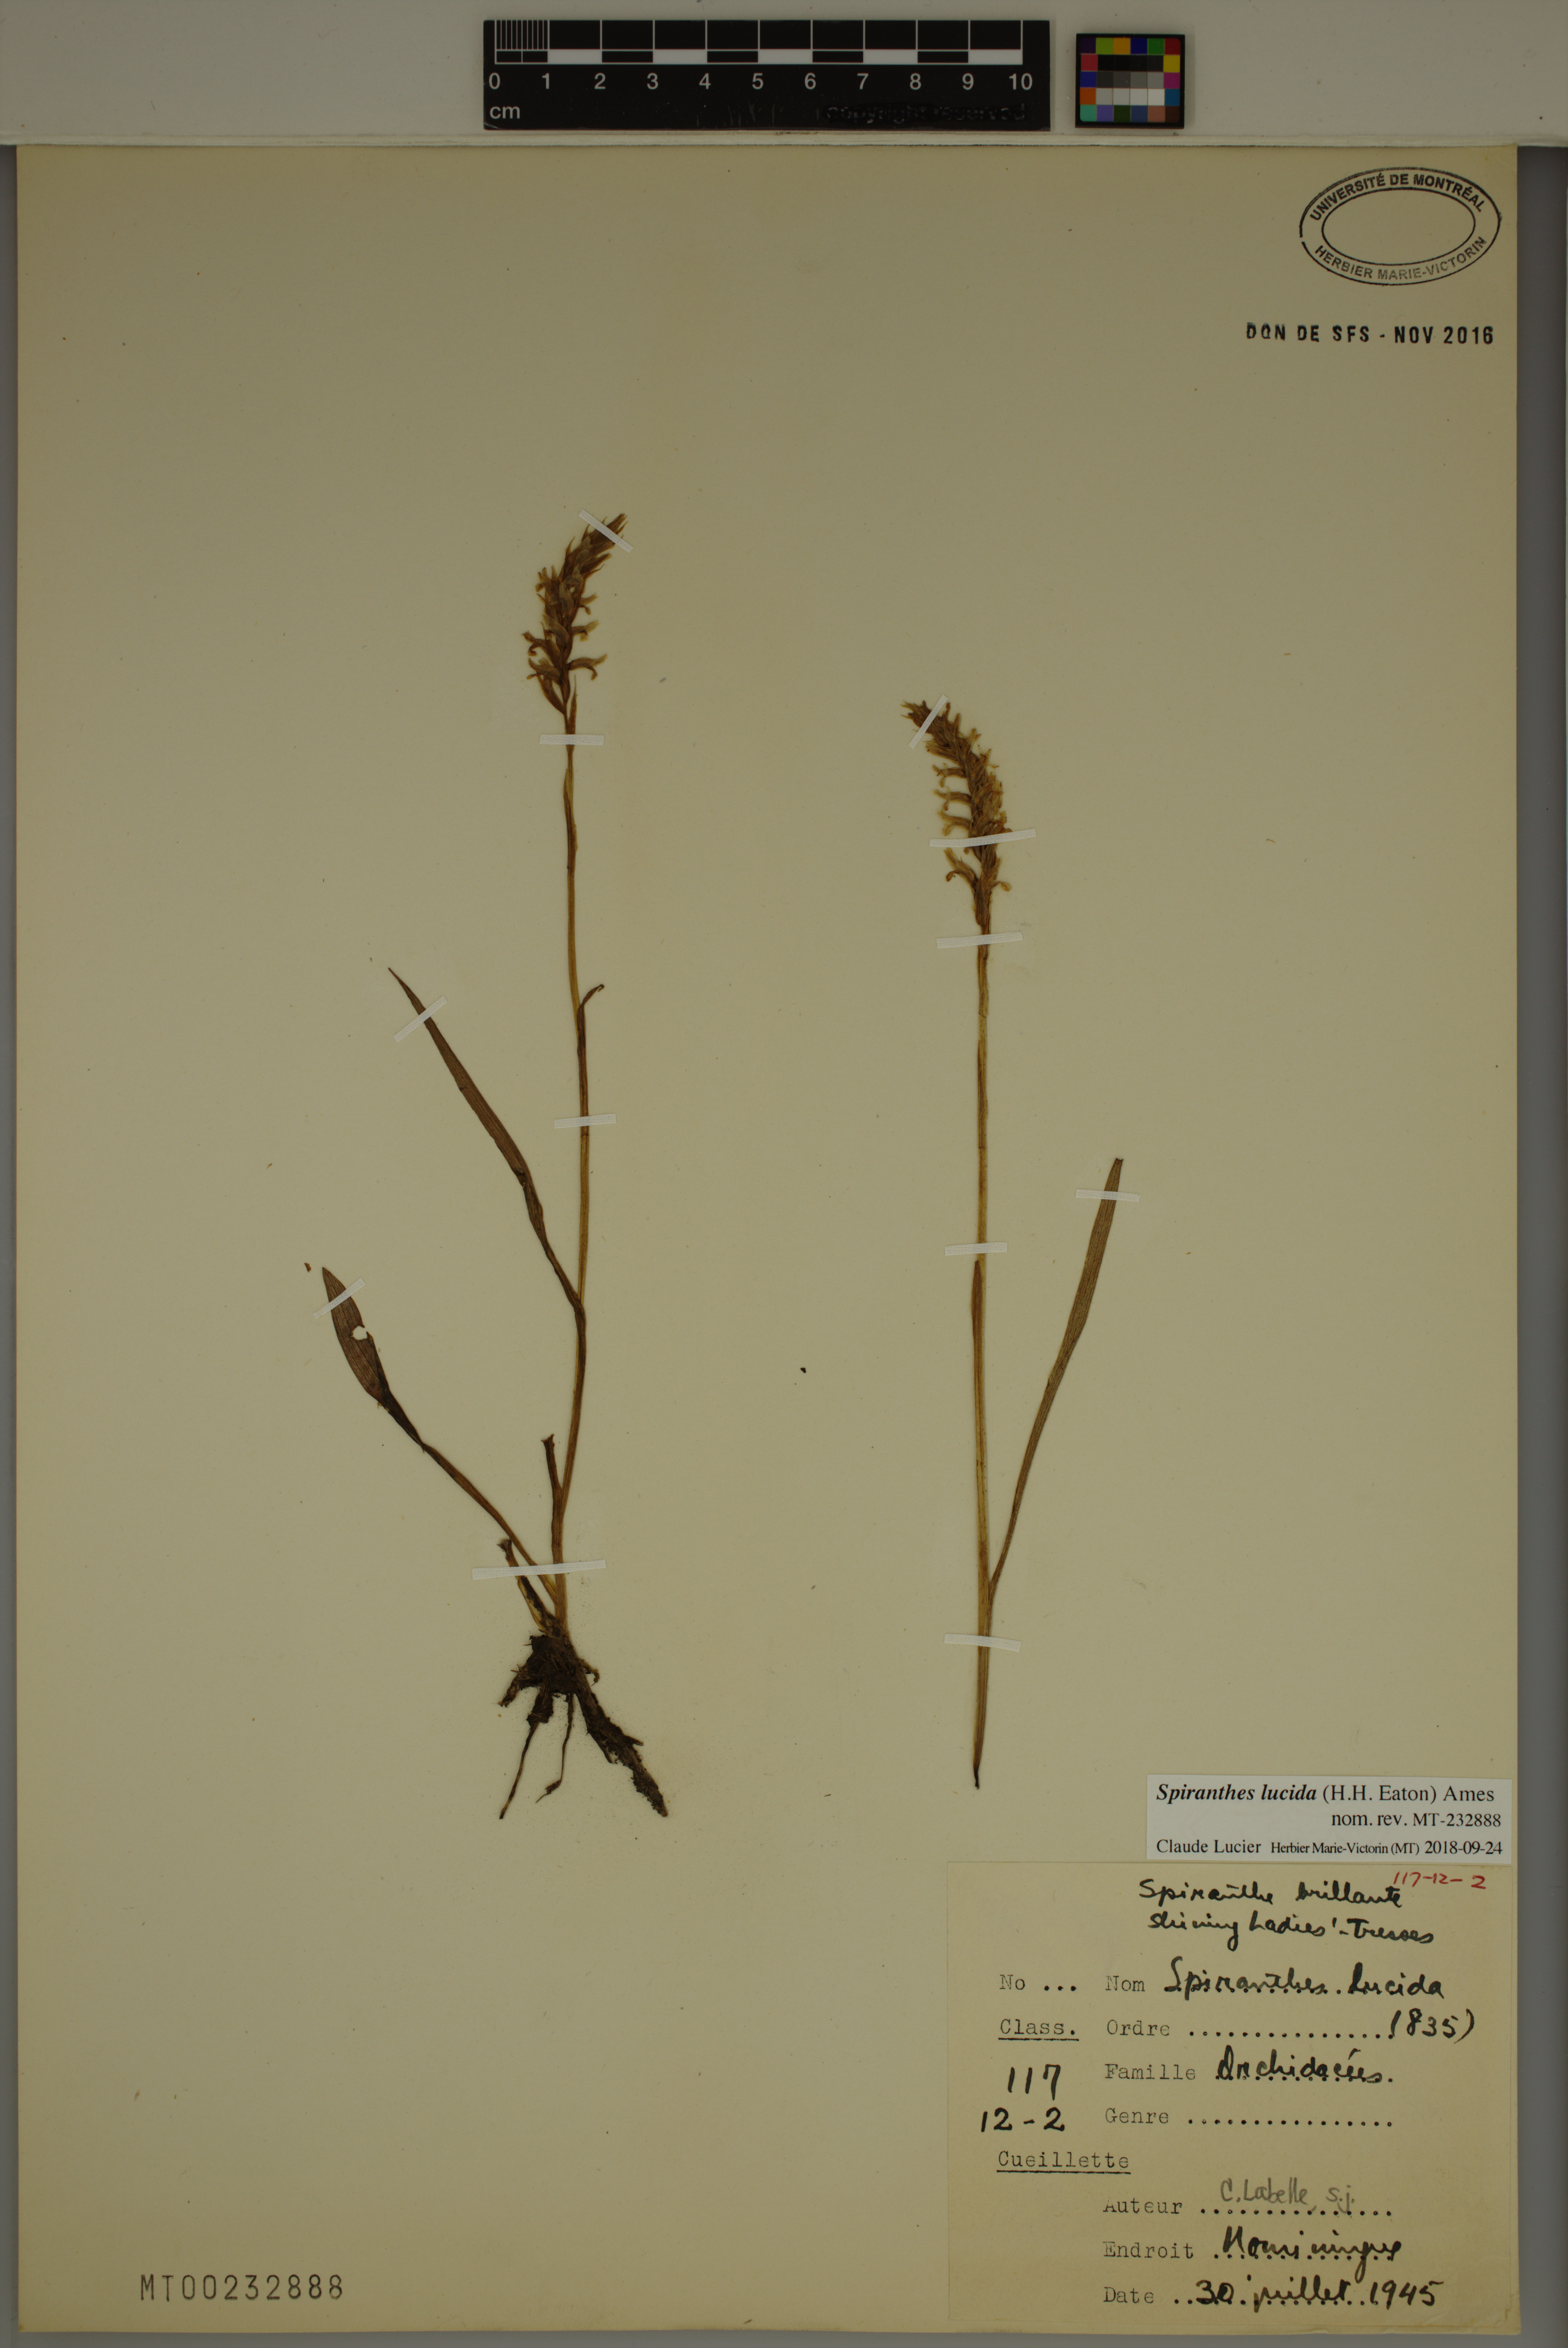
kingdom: Plantae
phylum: Tracheophyta
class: Liliopsida
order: Asparagales
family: Orchidaceae
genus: Spiranthes
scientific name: Spiranthes lucida
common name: Broad-leaved ladies'-tresses
